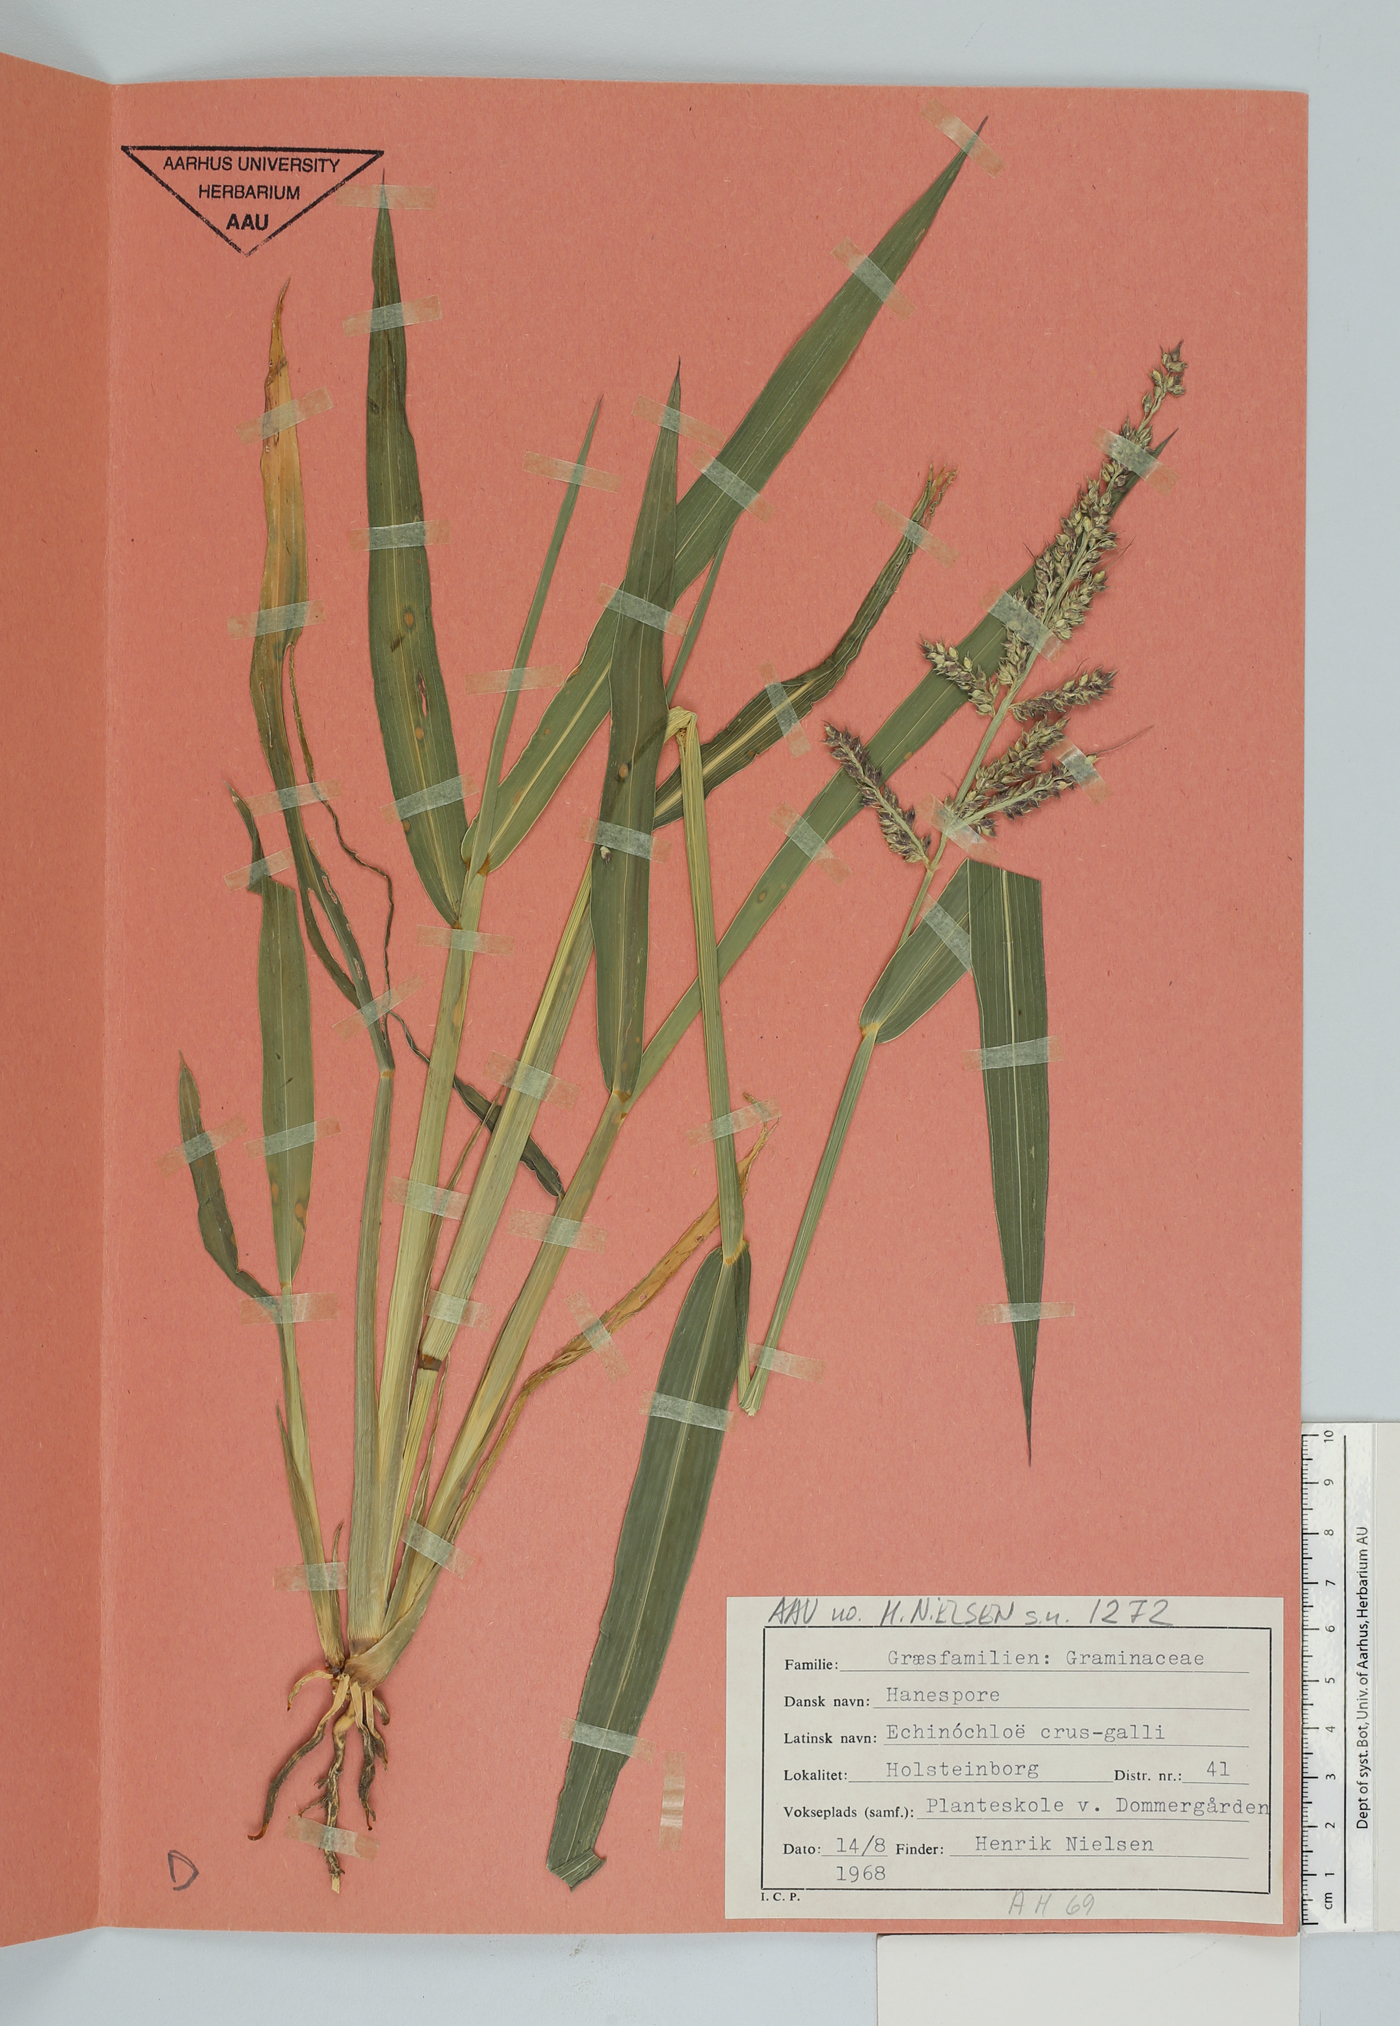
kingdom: Plantae
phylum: Tracheophyta
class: Liliopsida
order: Poales
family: Poaceae
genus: Echinochloa
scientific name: Echinochloa crus-galli
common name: Cockspur
